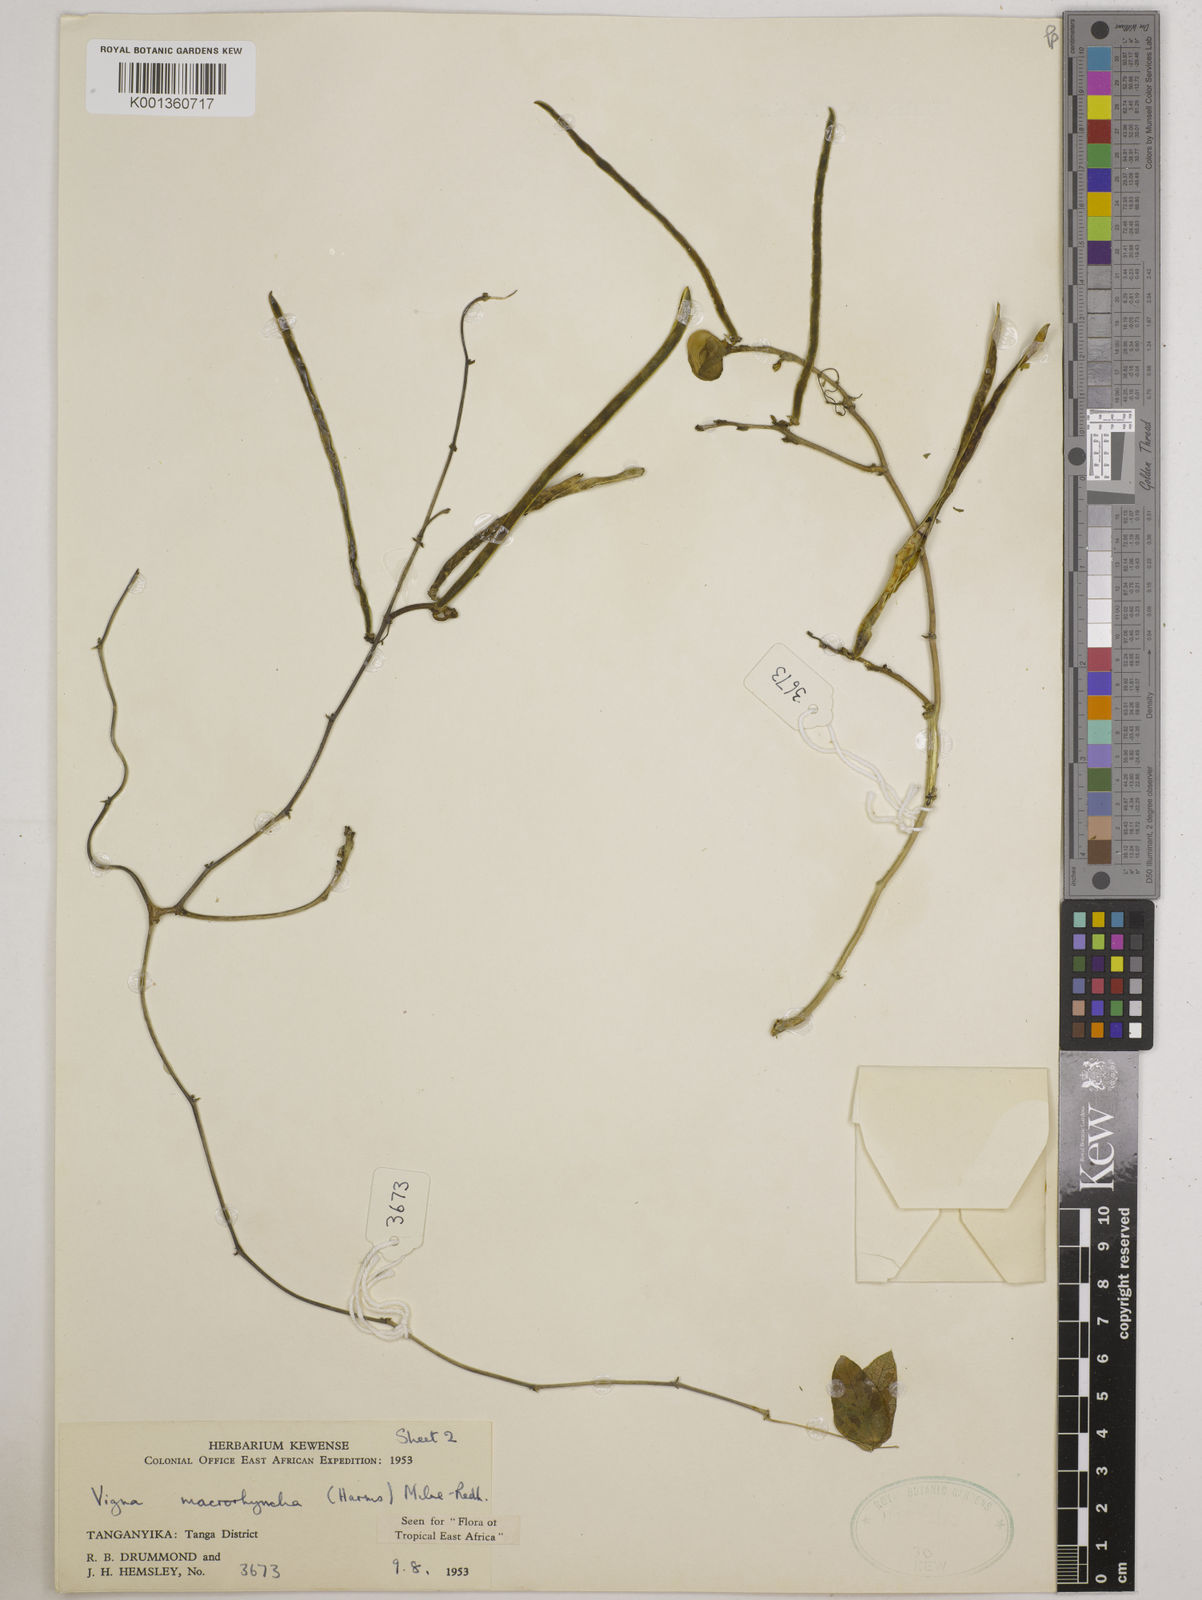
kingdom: Plantae
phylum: Tracheophyta
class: Magnoliopsida
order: Fabales
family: Fabaceae
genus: Wajira
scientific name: Wajira grahamiana
